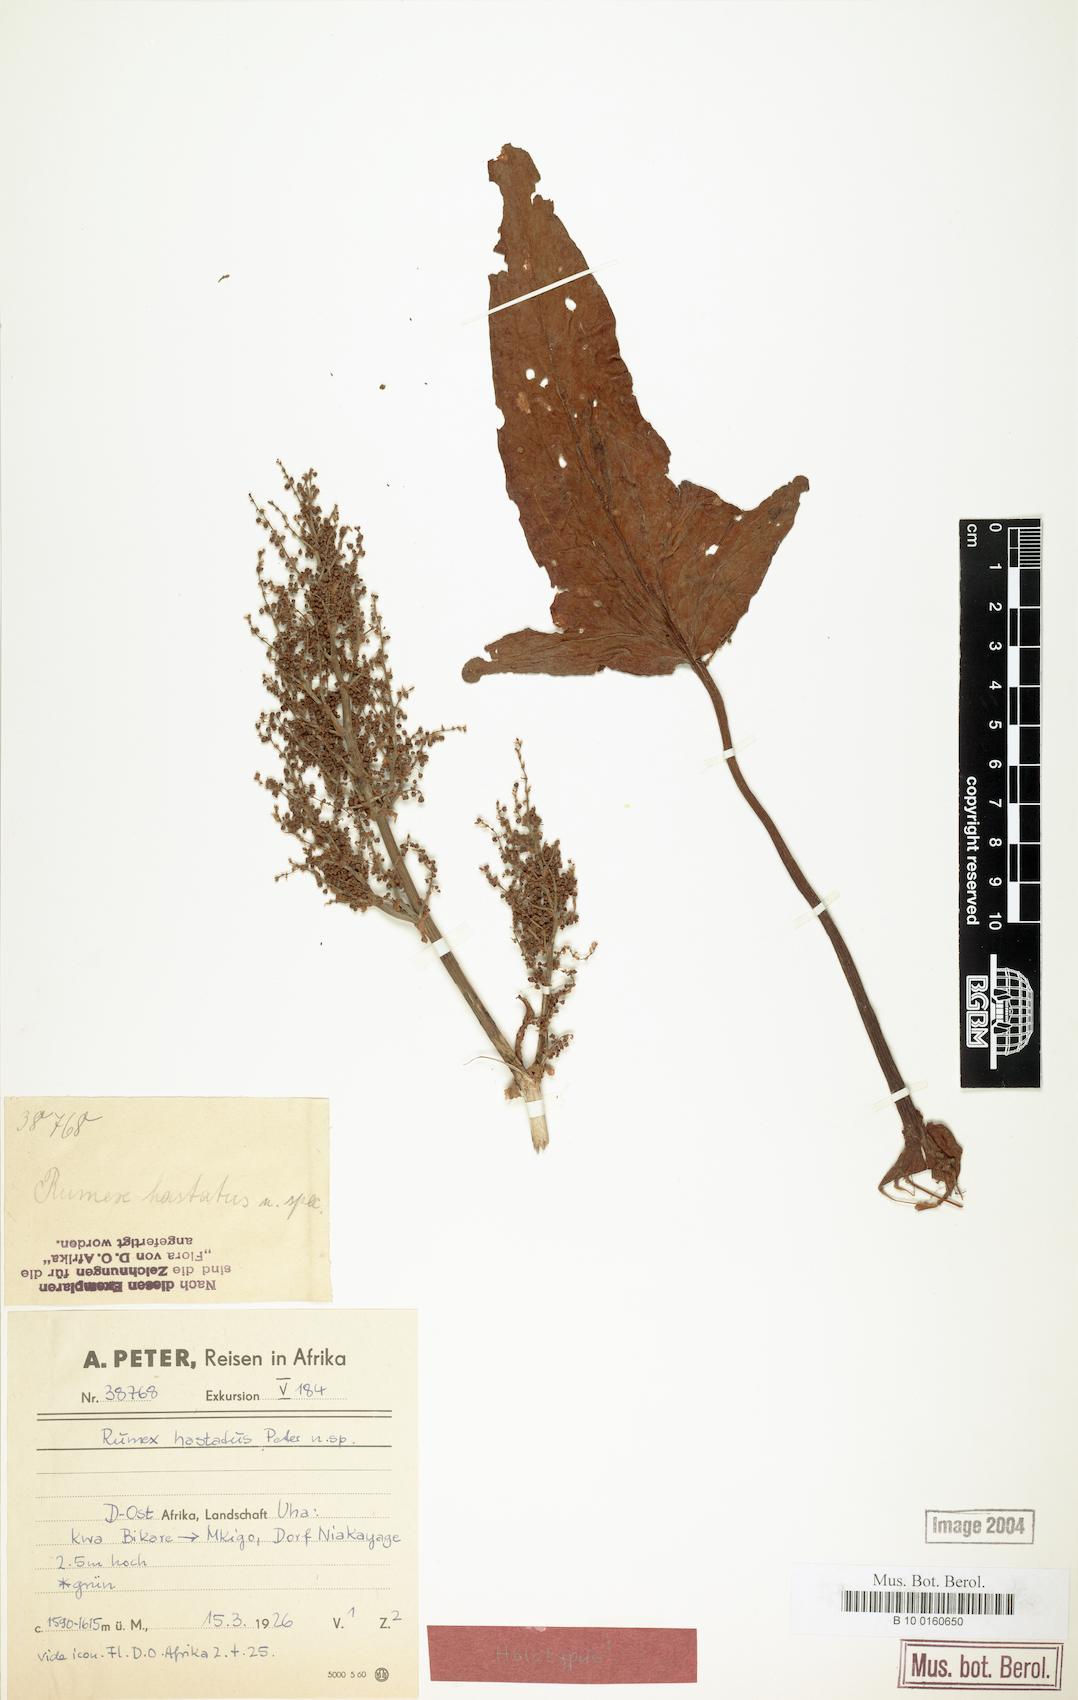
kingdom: Plantae
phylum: Tracheophyta
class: Magnoliopsida
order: Caryophyllales
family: Polygonaceae
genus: Rumex
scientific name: Rumex abyssinicus
